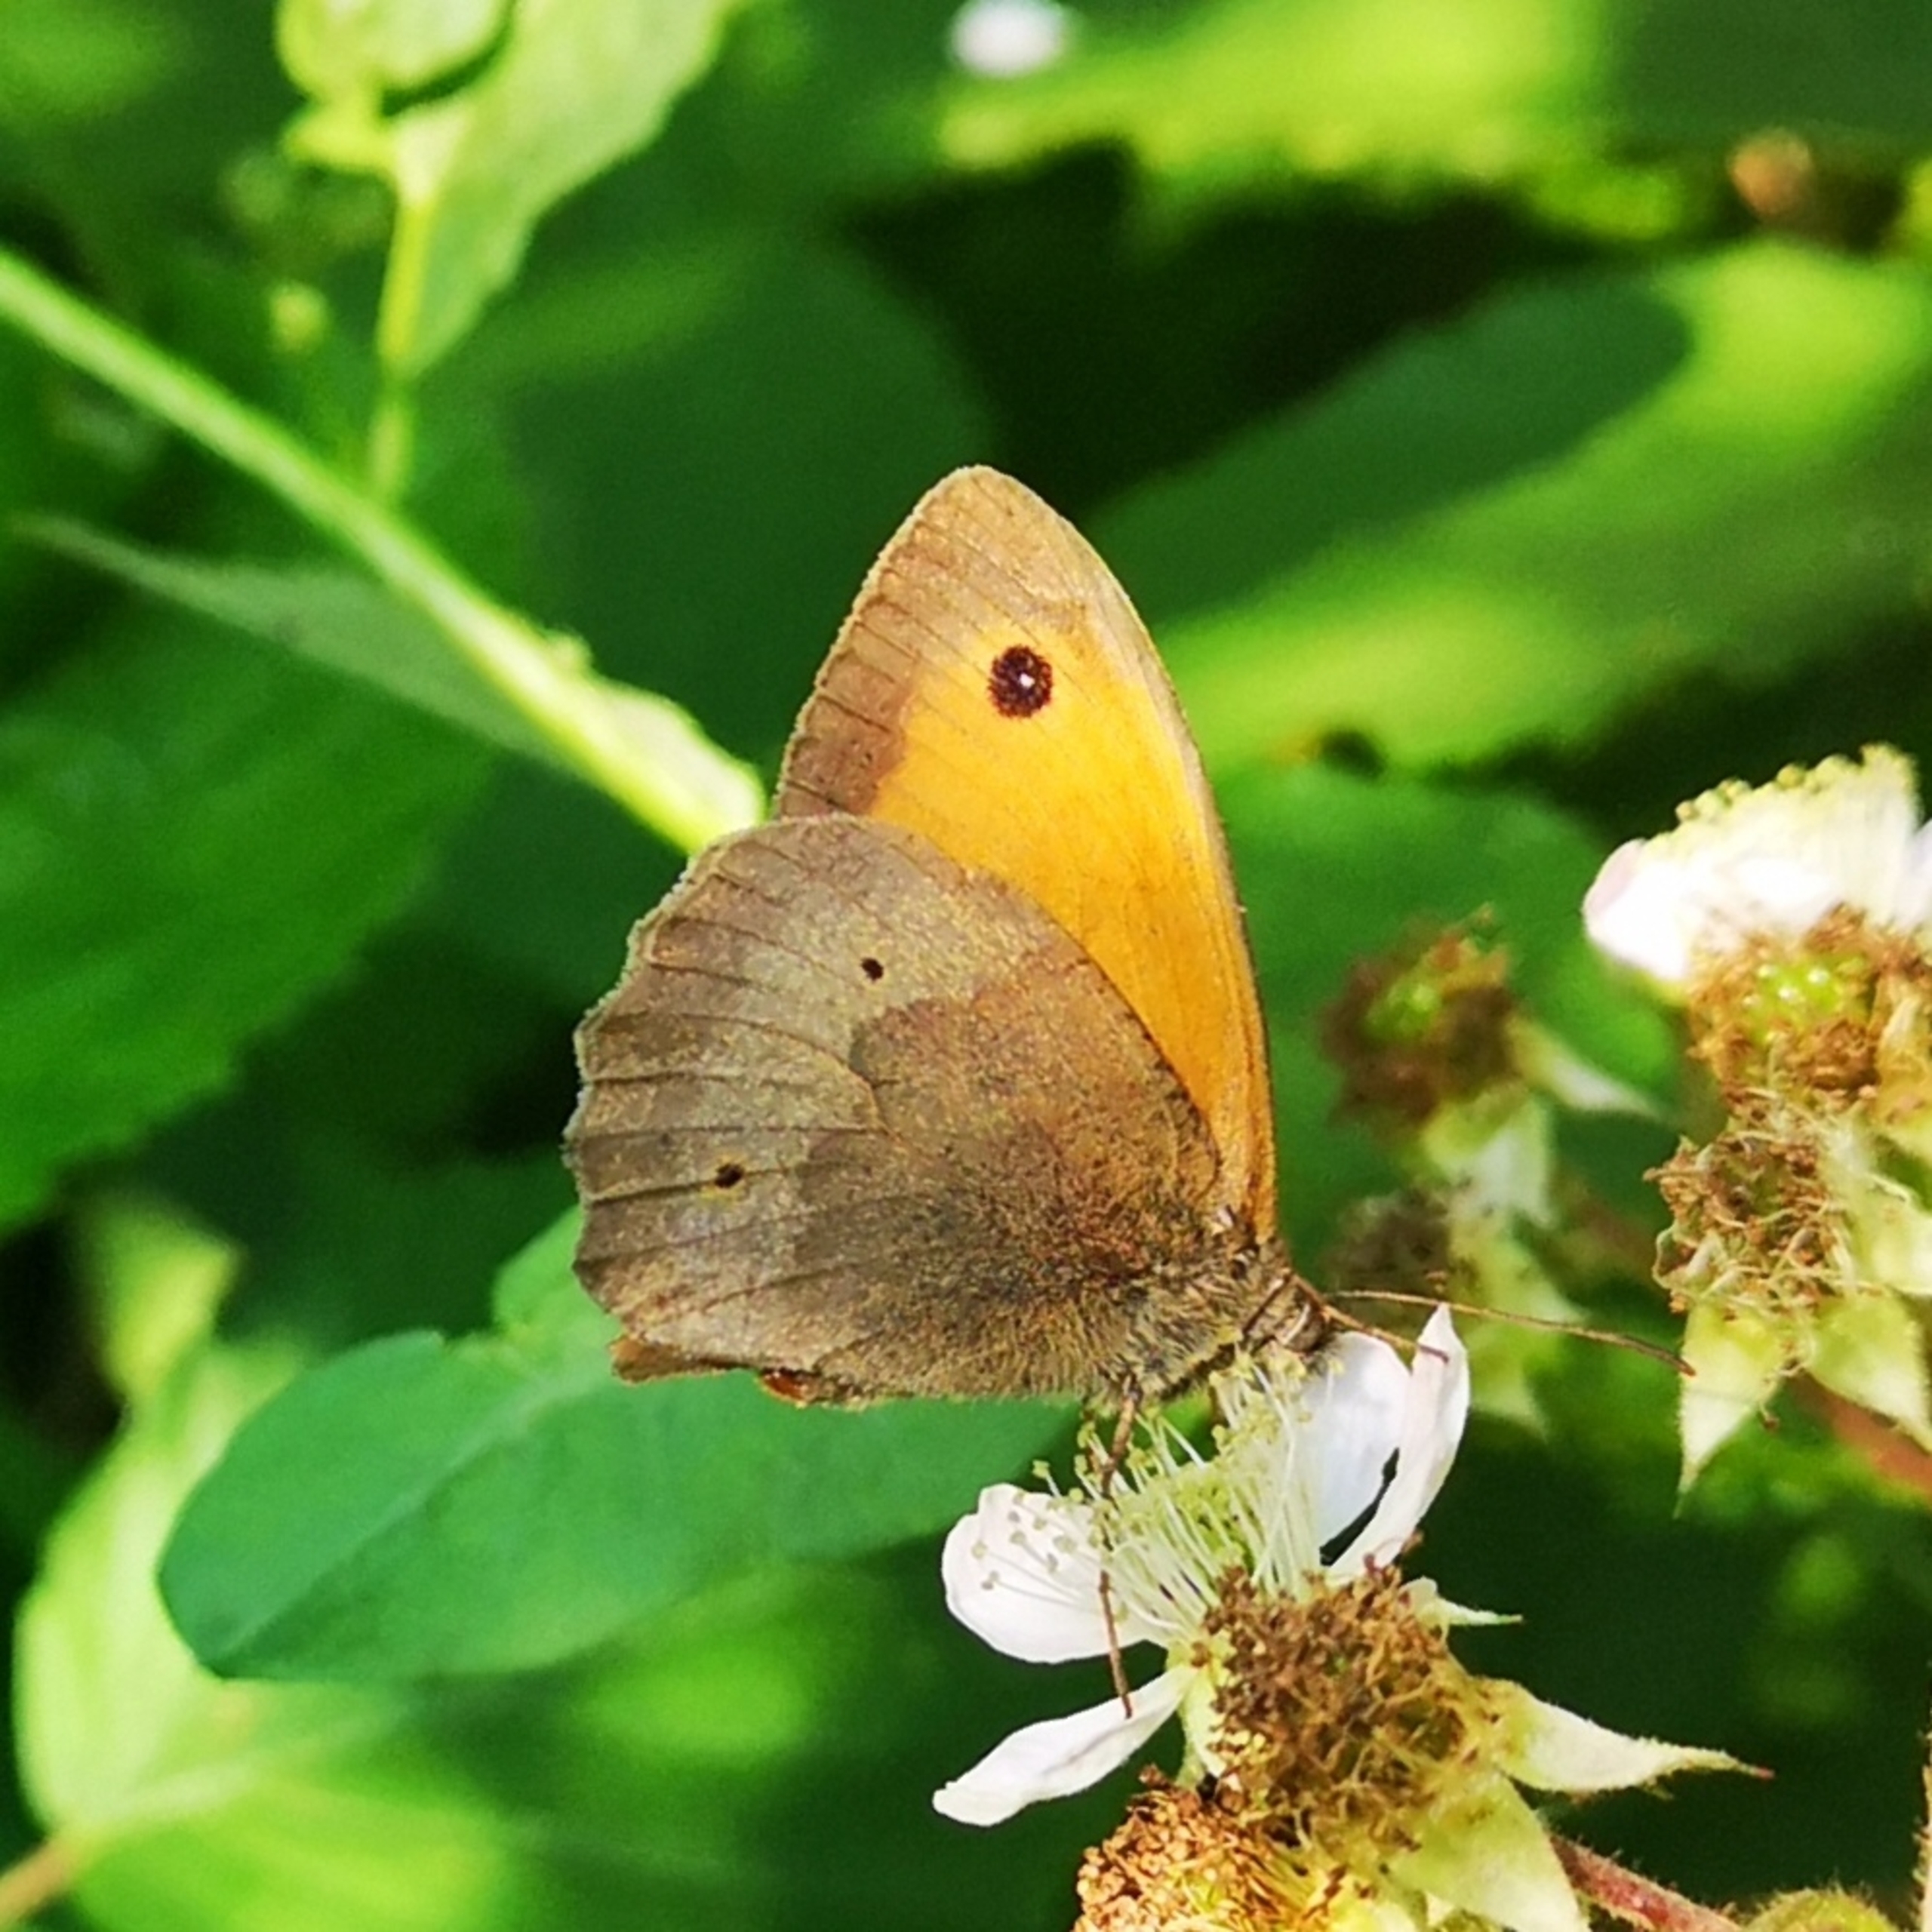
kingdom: Animalia
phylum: Arthropoda
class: Insecta
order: Lepidoptera
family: Nymphalidae
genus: Maniola
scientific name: Maniola jurtina
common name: Græsrandøje
